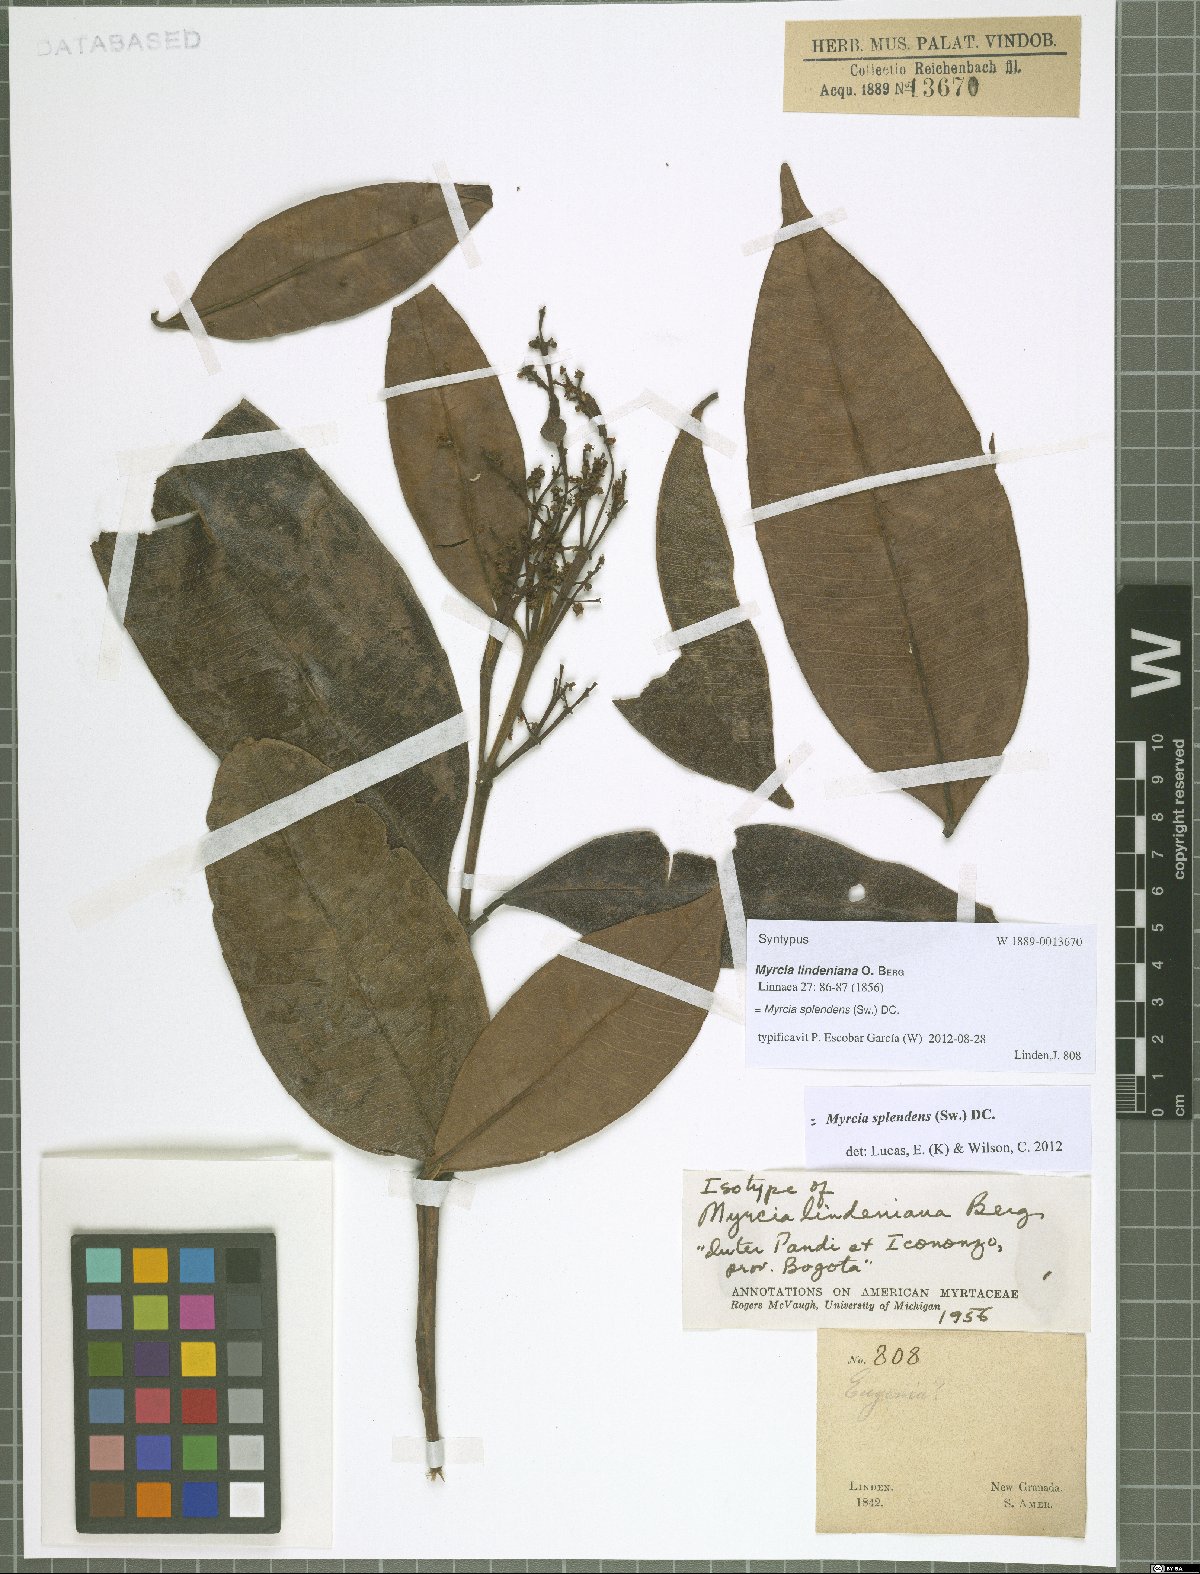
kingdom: Plantae
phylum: Tracheophyta
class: Magnoliopsida
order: Myrtales
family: Myrtaceae
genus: Myrcia
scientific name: Myrcia splendens
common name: Surinam cherry
